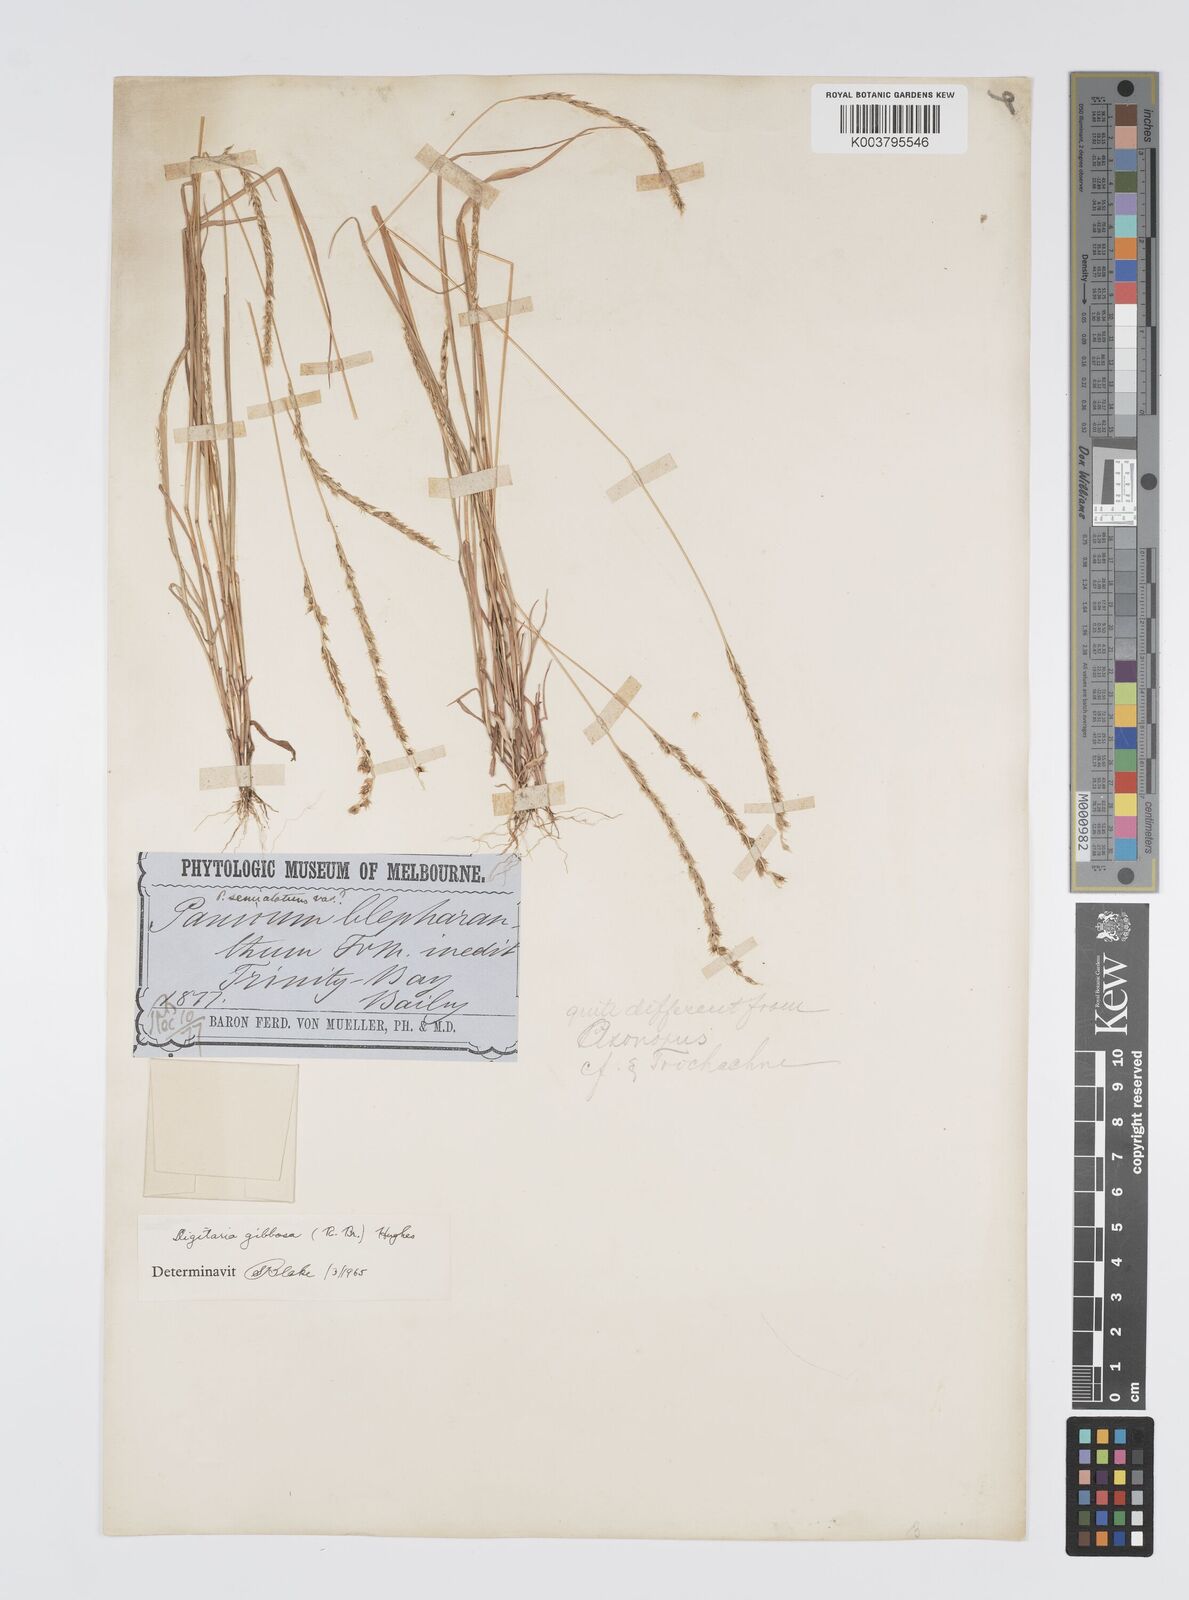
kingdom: Plantae
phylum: Tracheophyta
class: Liliopsida
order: Poales
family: Poaceae
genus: Digitaria
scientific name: Digitaria gibbosa
